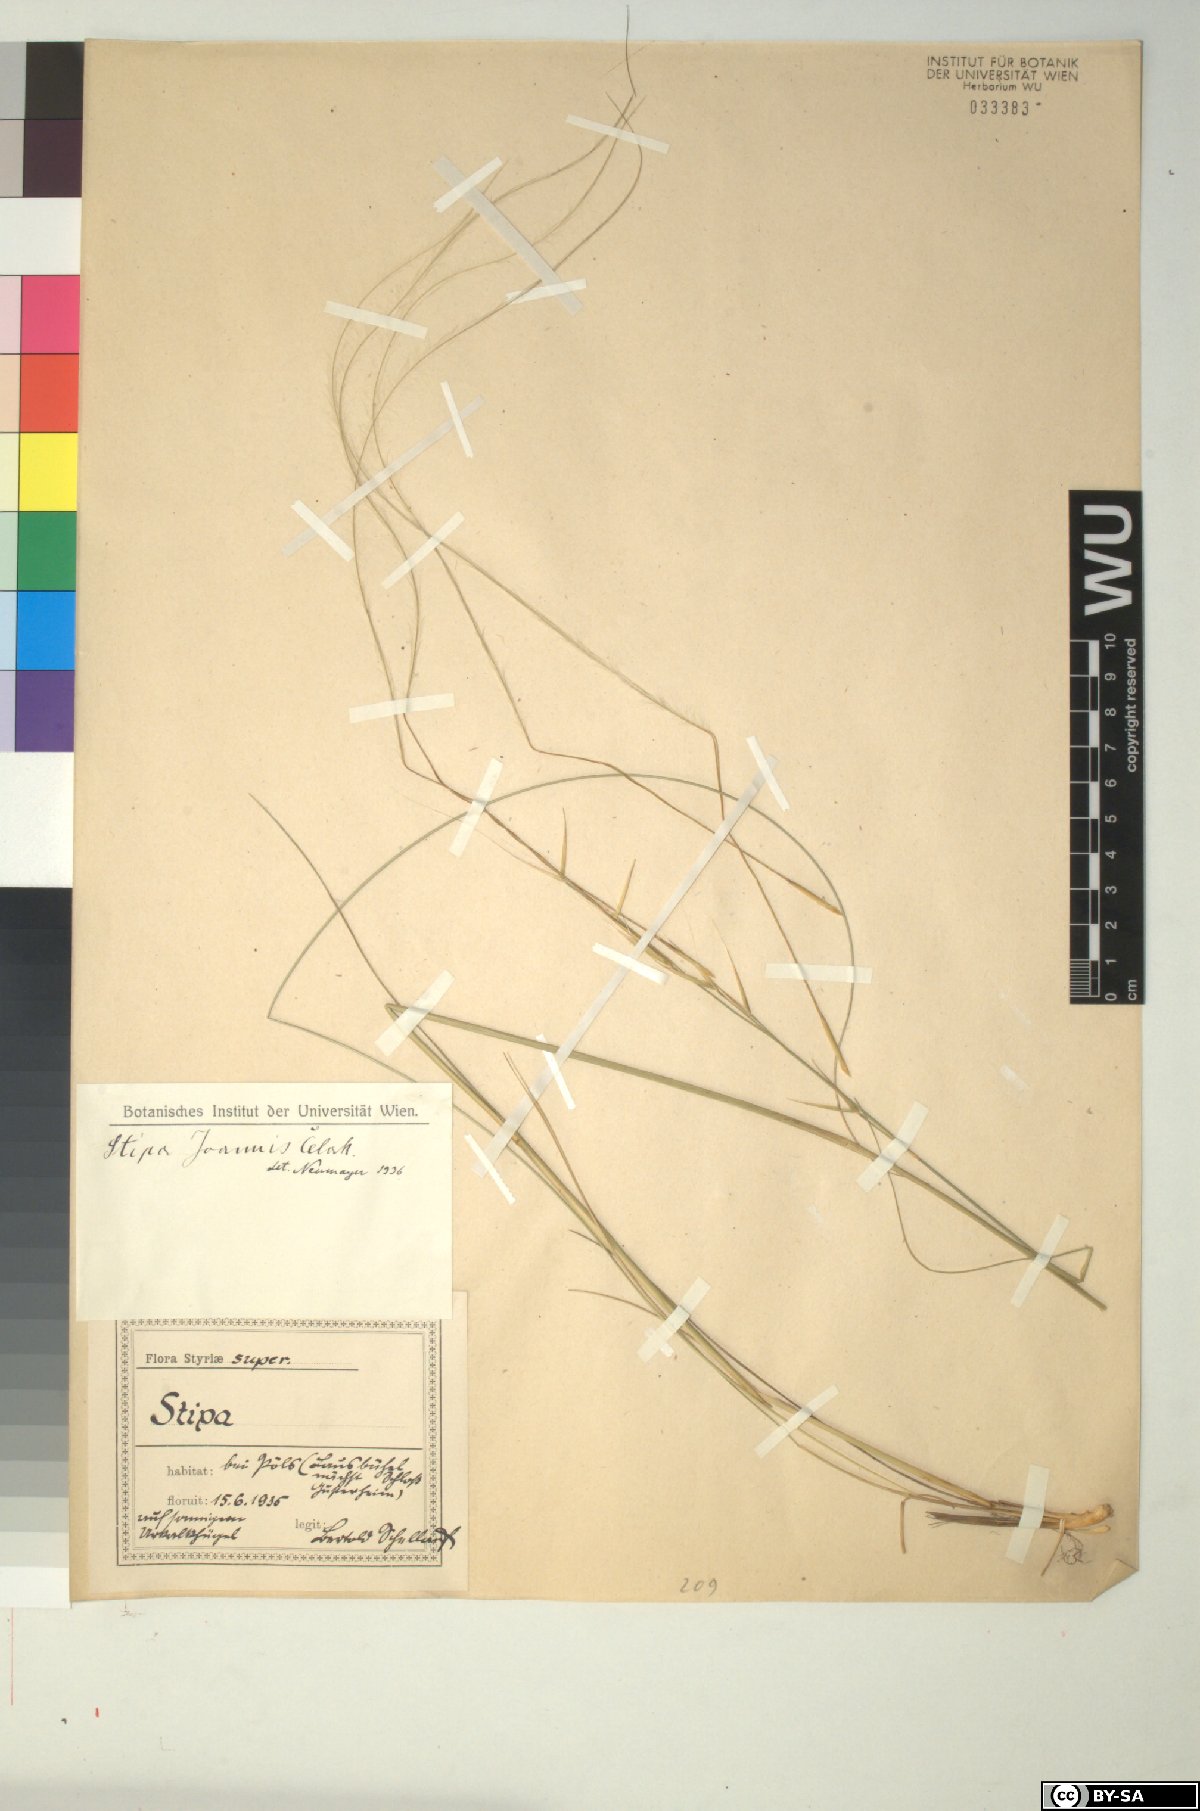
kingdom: Plantae
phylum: Tracheophyta
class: Liliopsida
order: Poales
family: Poaceae
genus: Stipa
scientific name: Stipa pennata
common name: European feather grass
